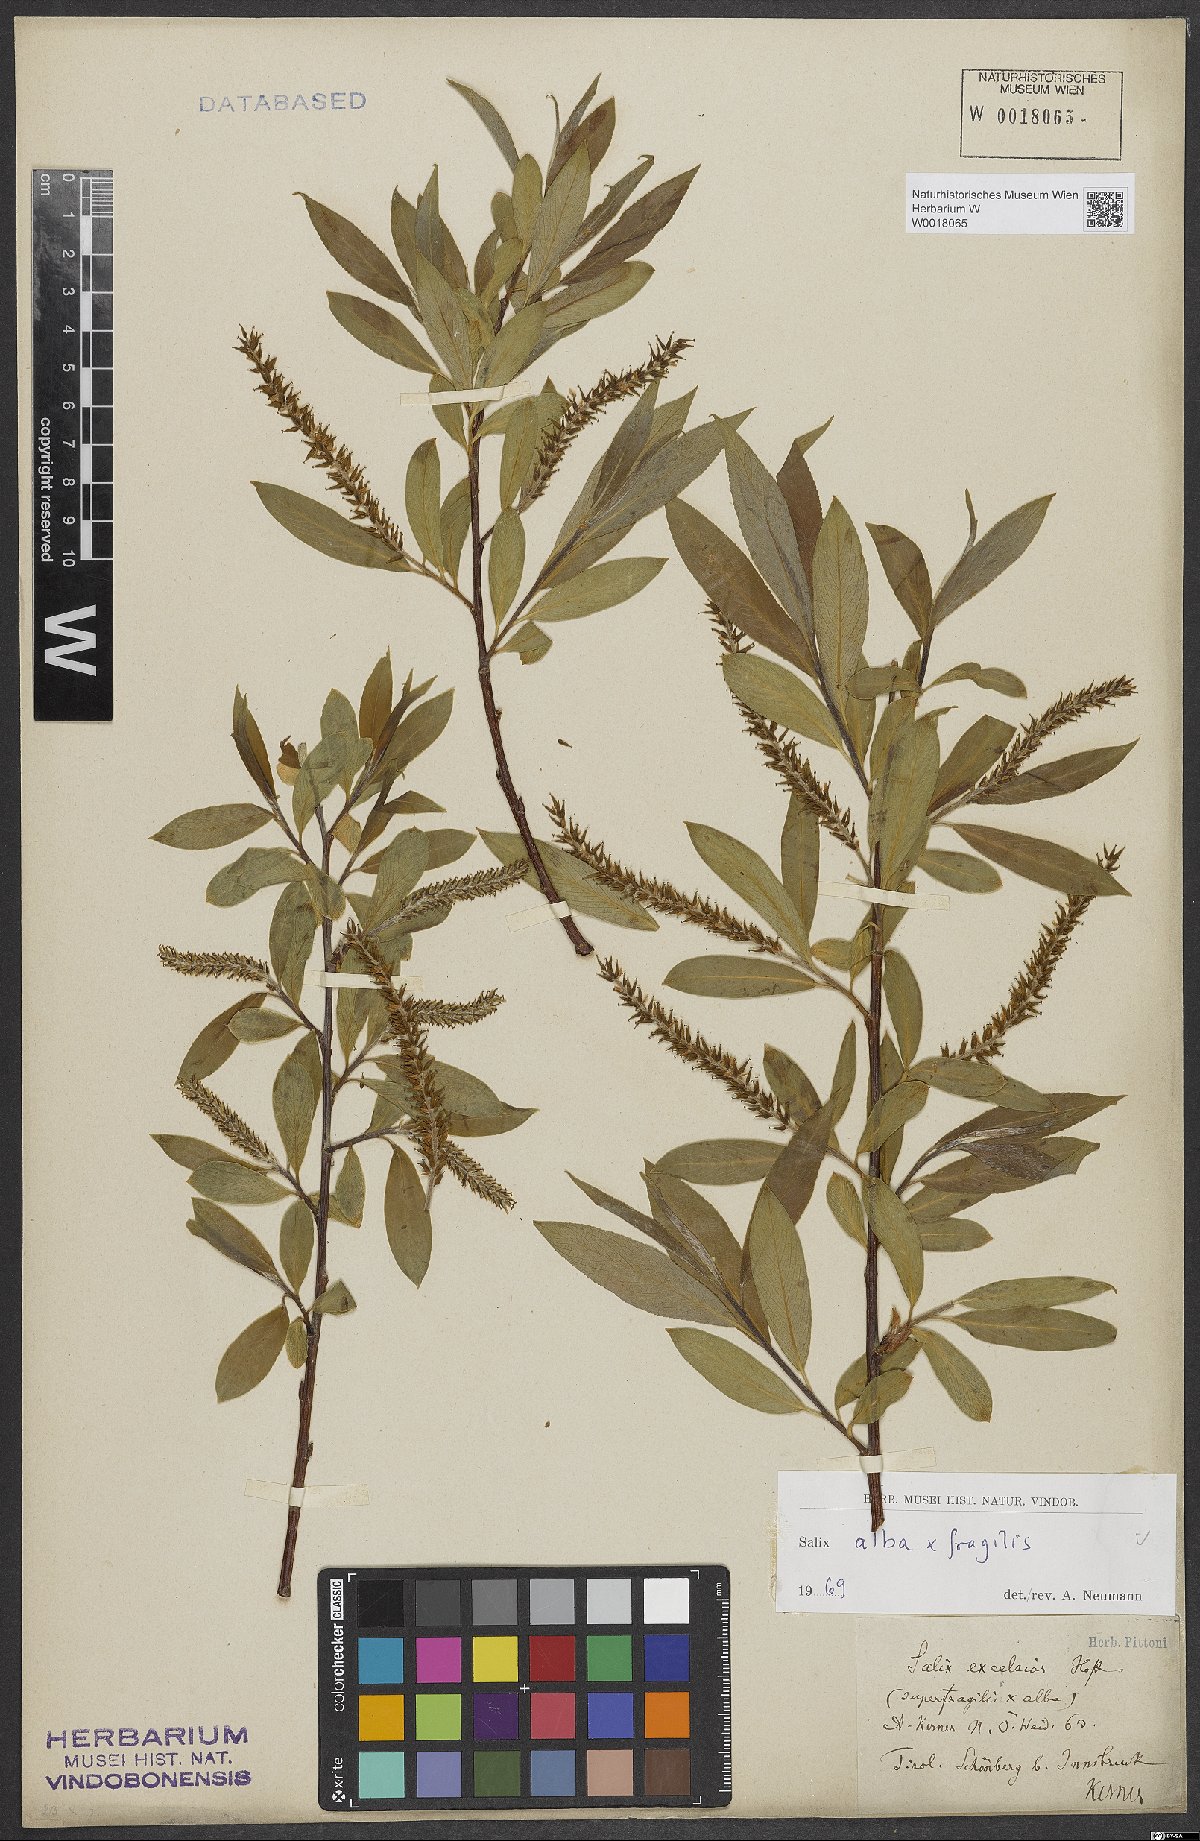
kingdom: Plantae
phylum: Tracheophyta
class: Magnoliopsida
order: Malpighiales
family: Salicaceae
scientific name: Salicaceae
